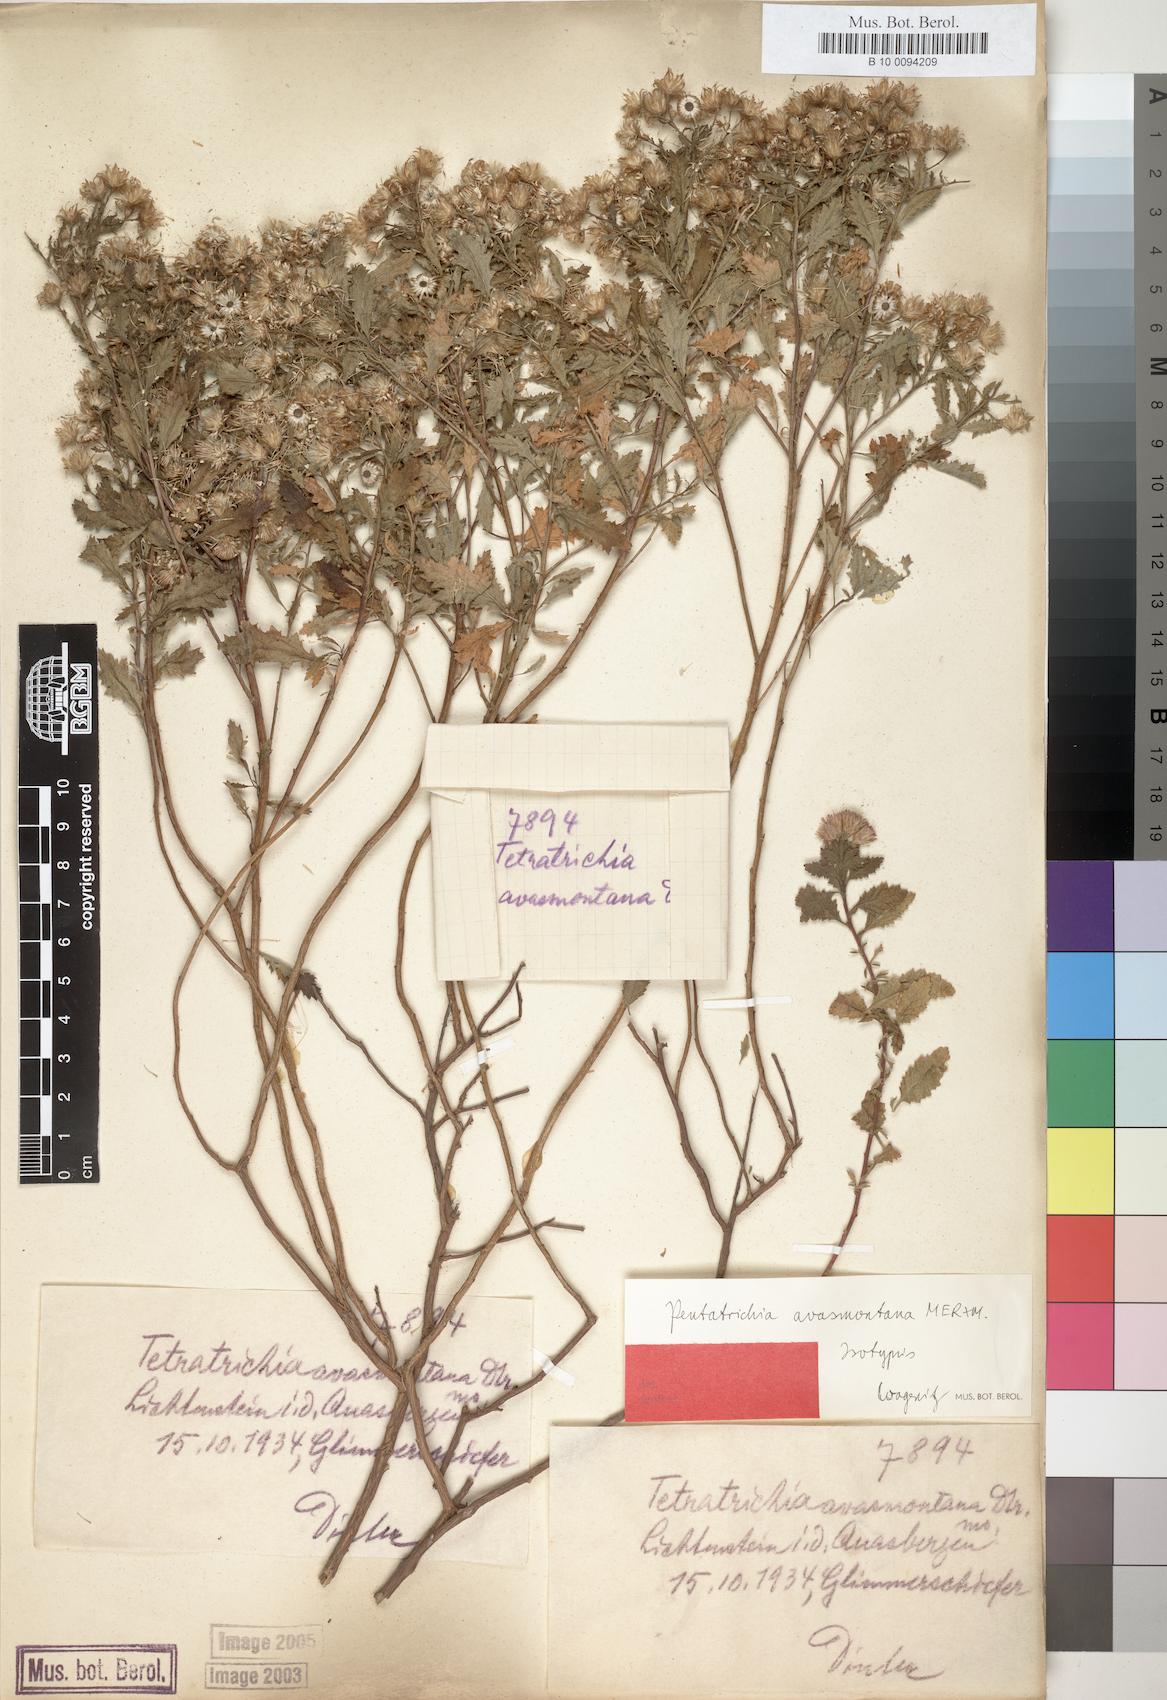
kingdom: Plantae
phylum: Tracheophyta
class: Magnoliopsida
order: Asterales
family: Asteraceae
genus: Pentatrichia
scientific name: Pentatrichia rehmii
